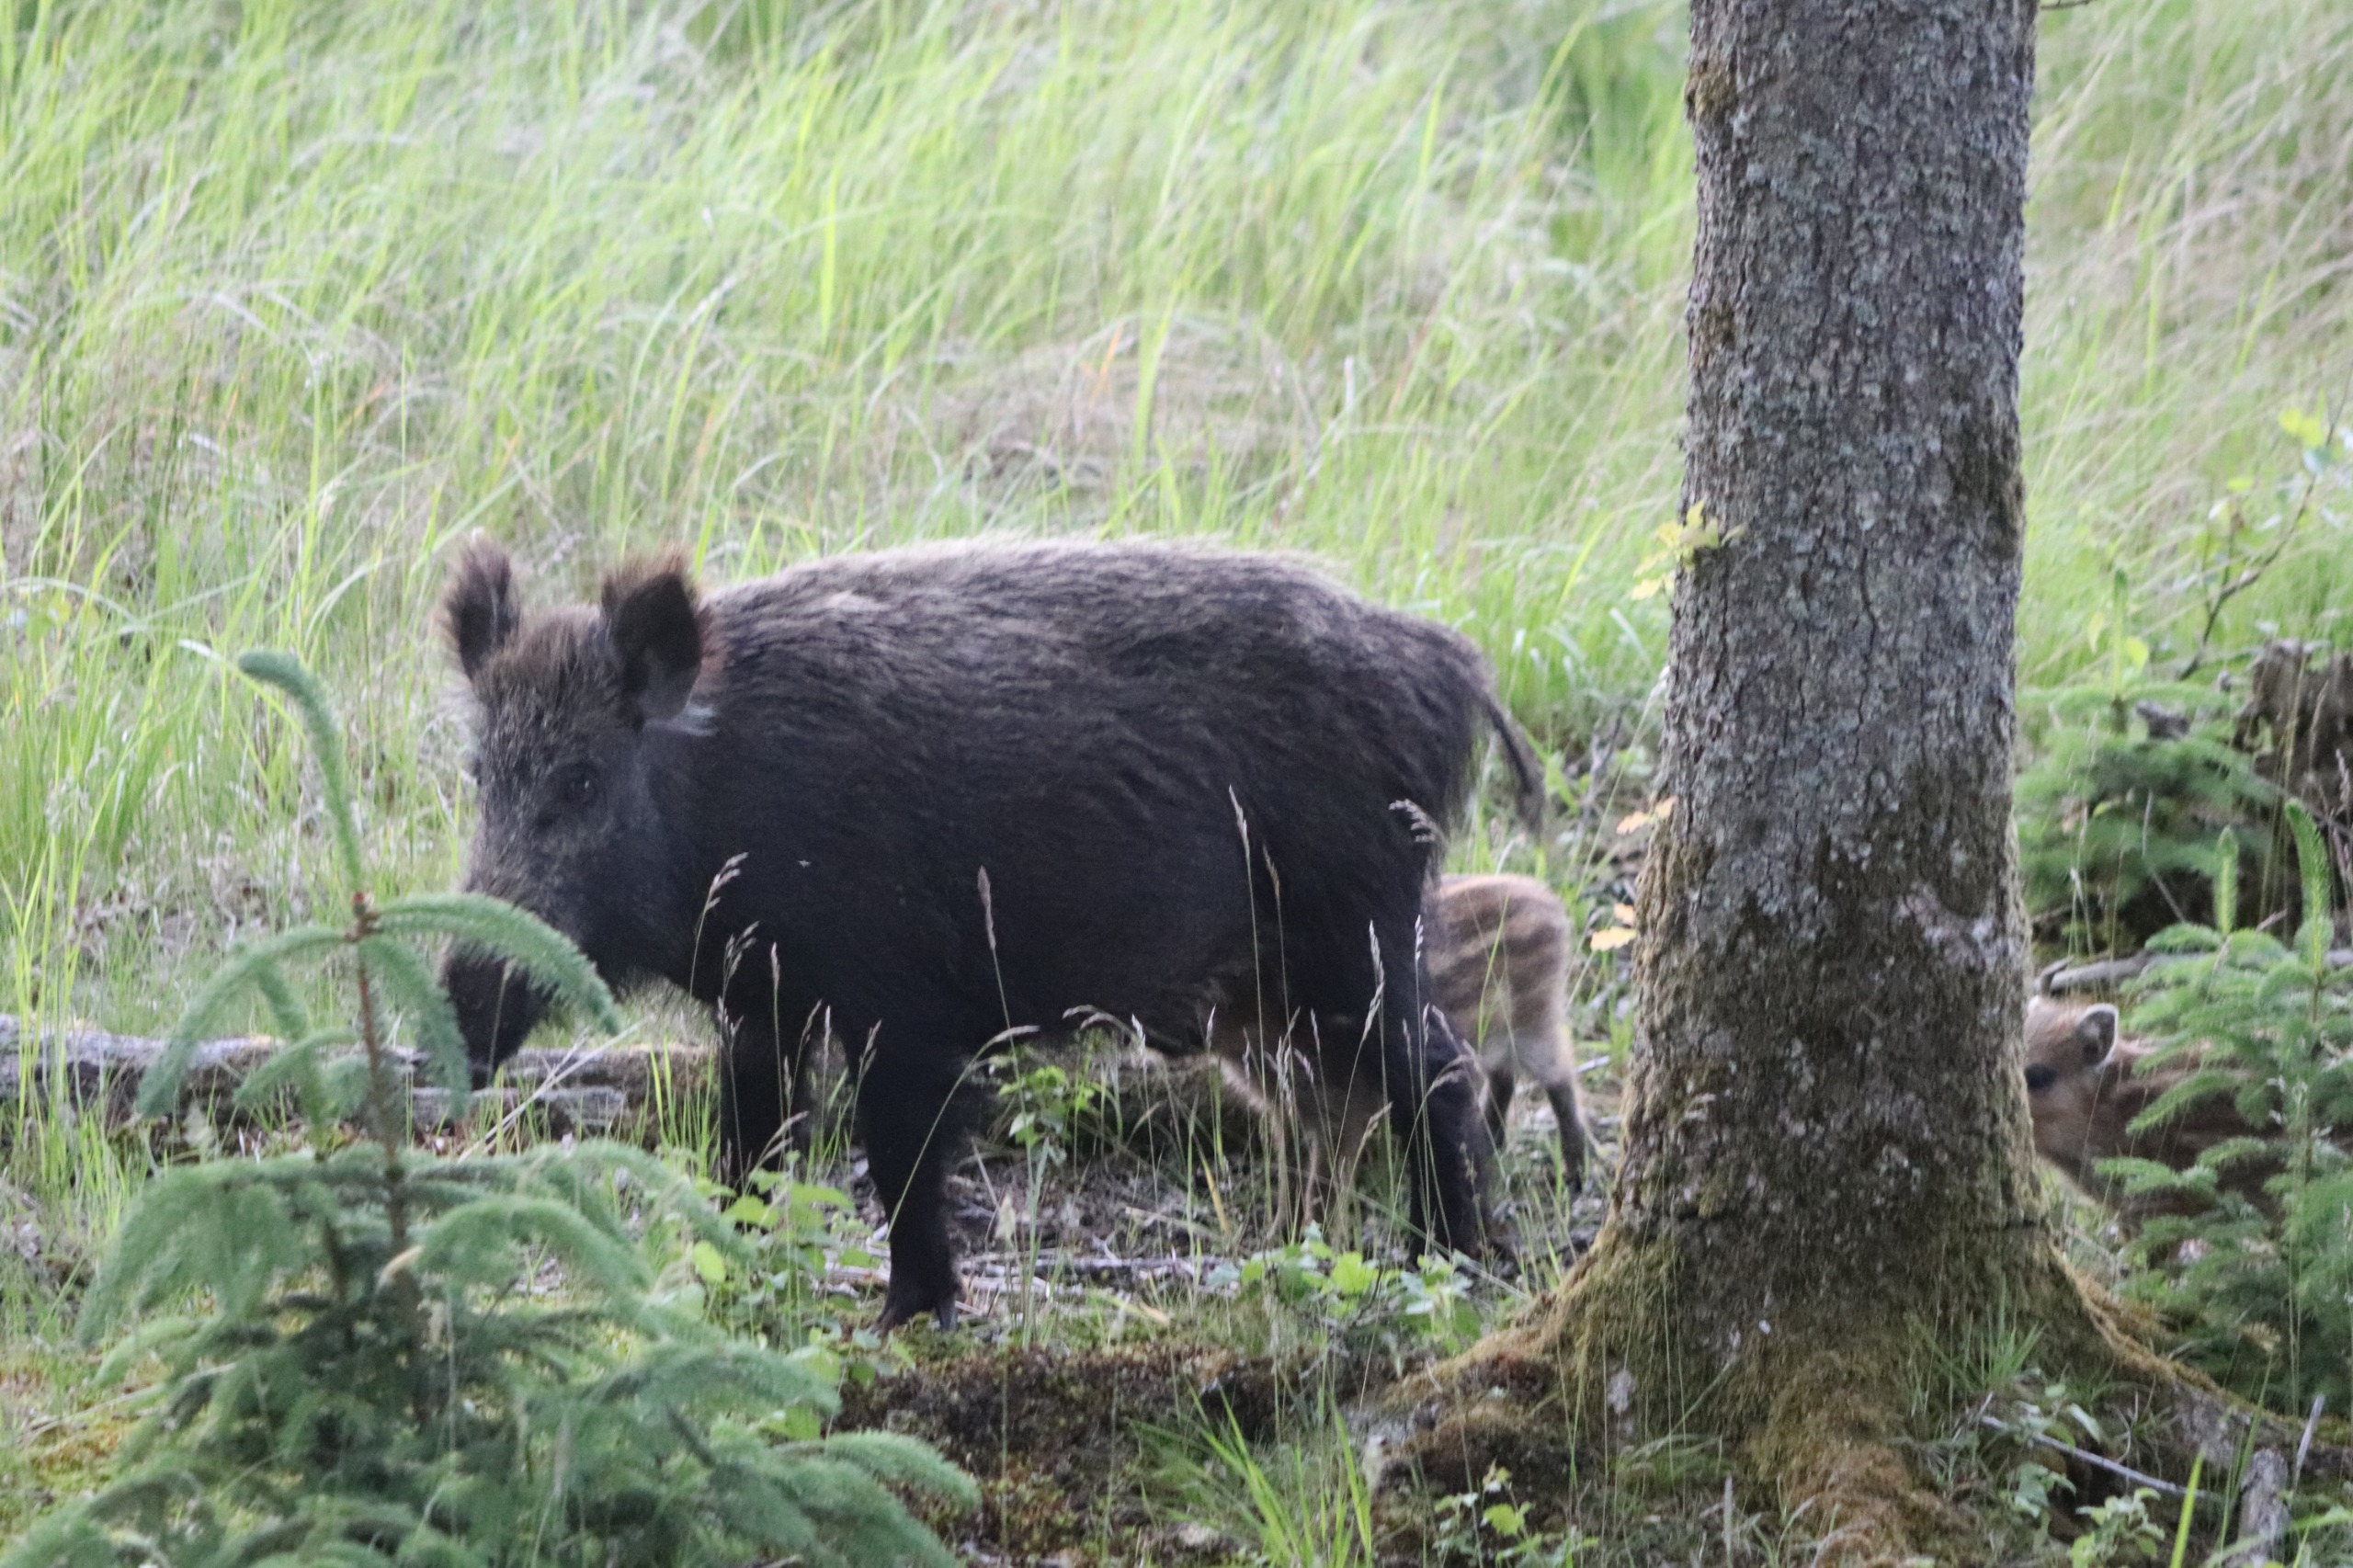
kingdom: Animalia
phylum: Chordata
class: Mammalia
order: Artiodactyla
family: Suidae
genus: Sus
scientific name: Sus scrofa
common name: Vildsvin
